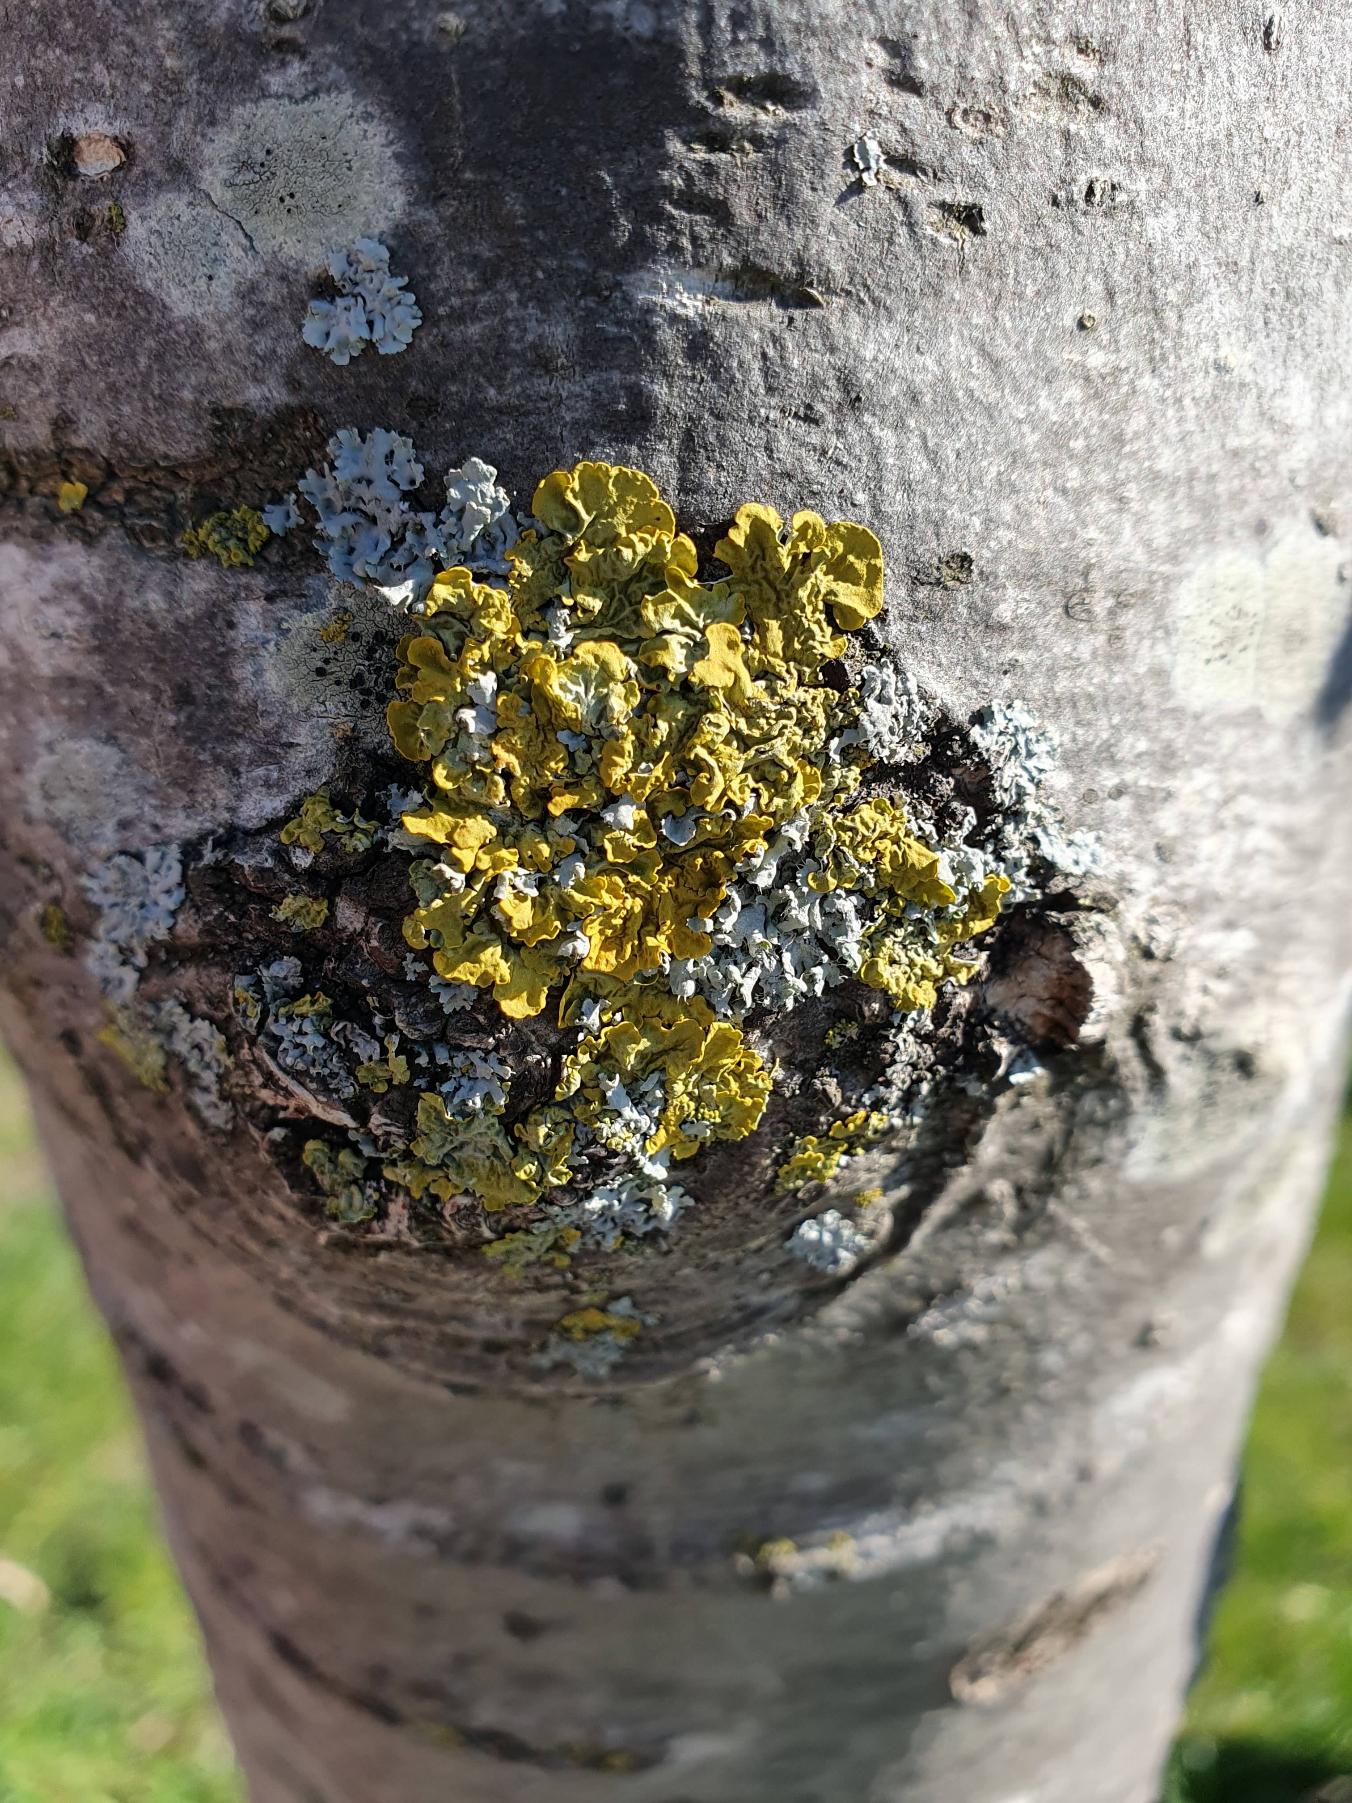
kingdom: Fungi
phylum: Ascomycota
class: Lecanoromycetes
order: Teloschistales
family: Teloschistaceae
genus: Xanthoria
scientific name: Xanthoria parietina
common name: Almindelig væggelav
